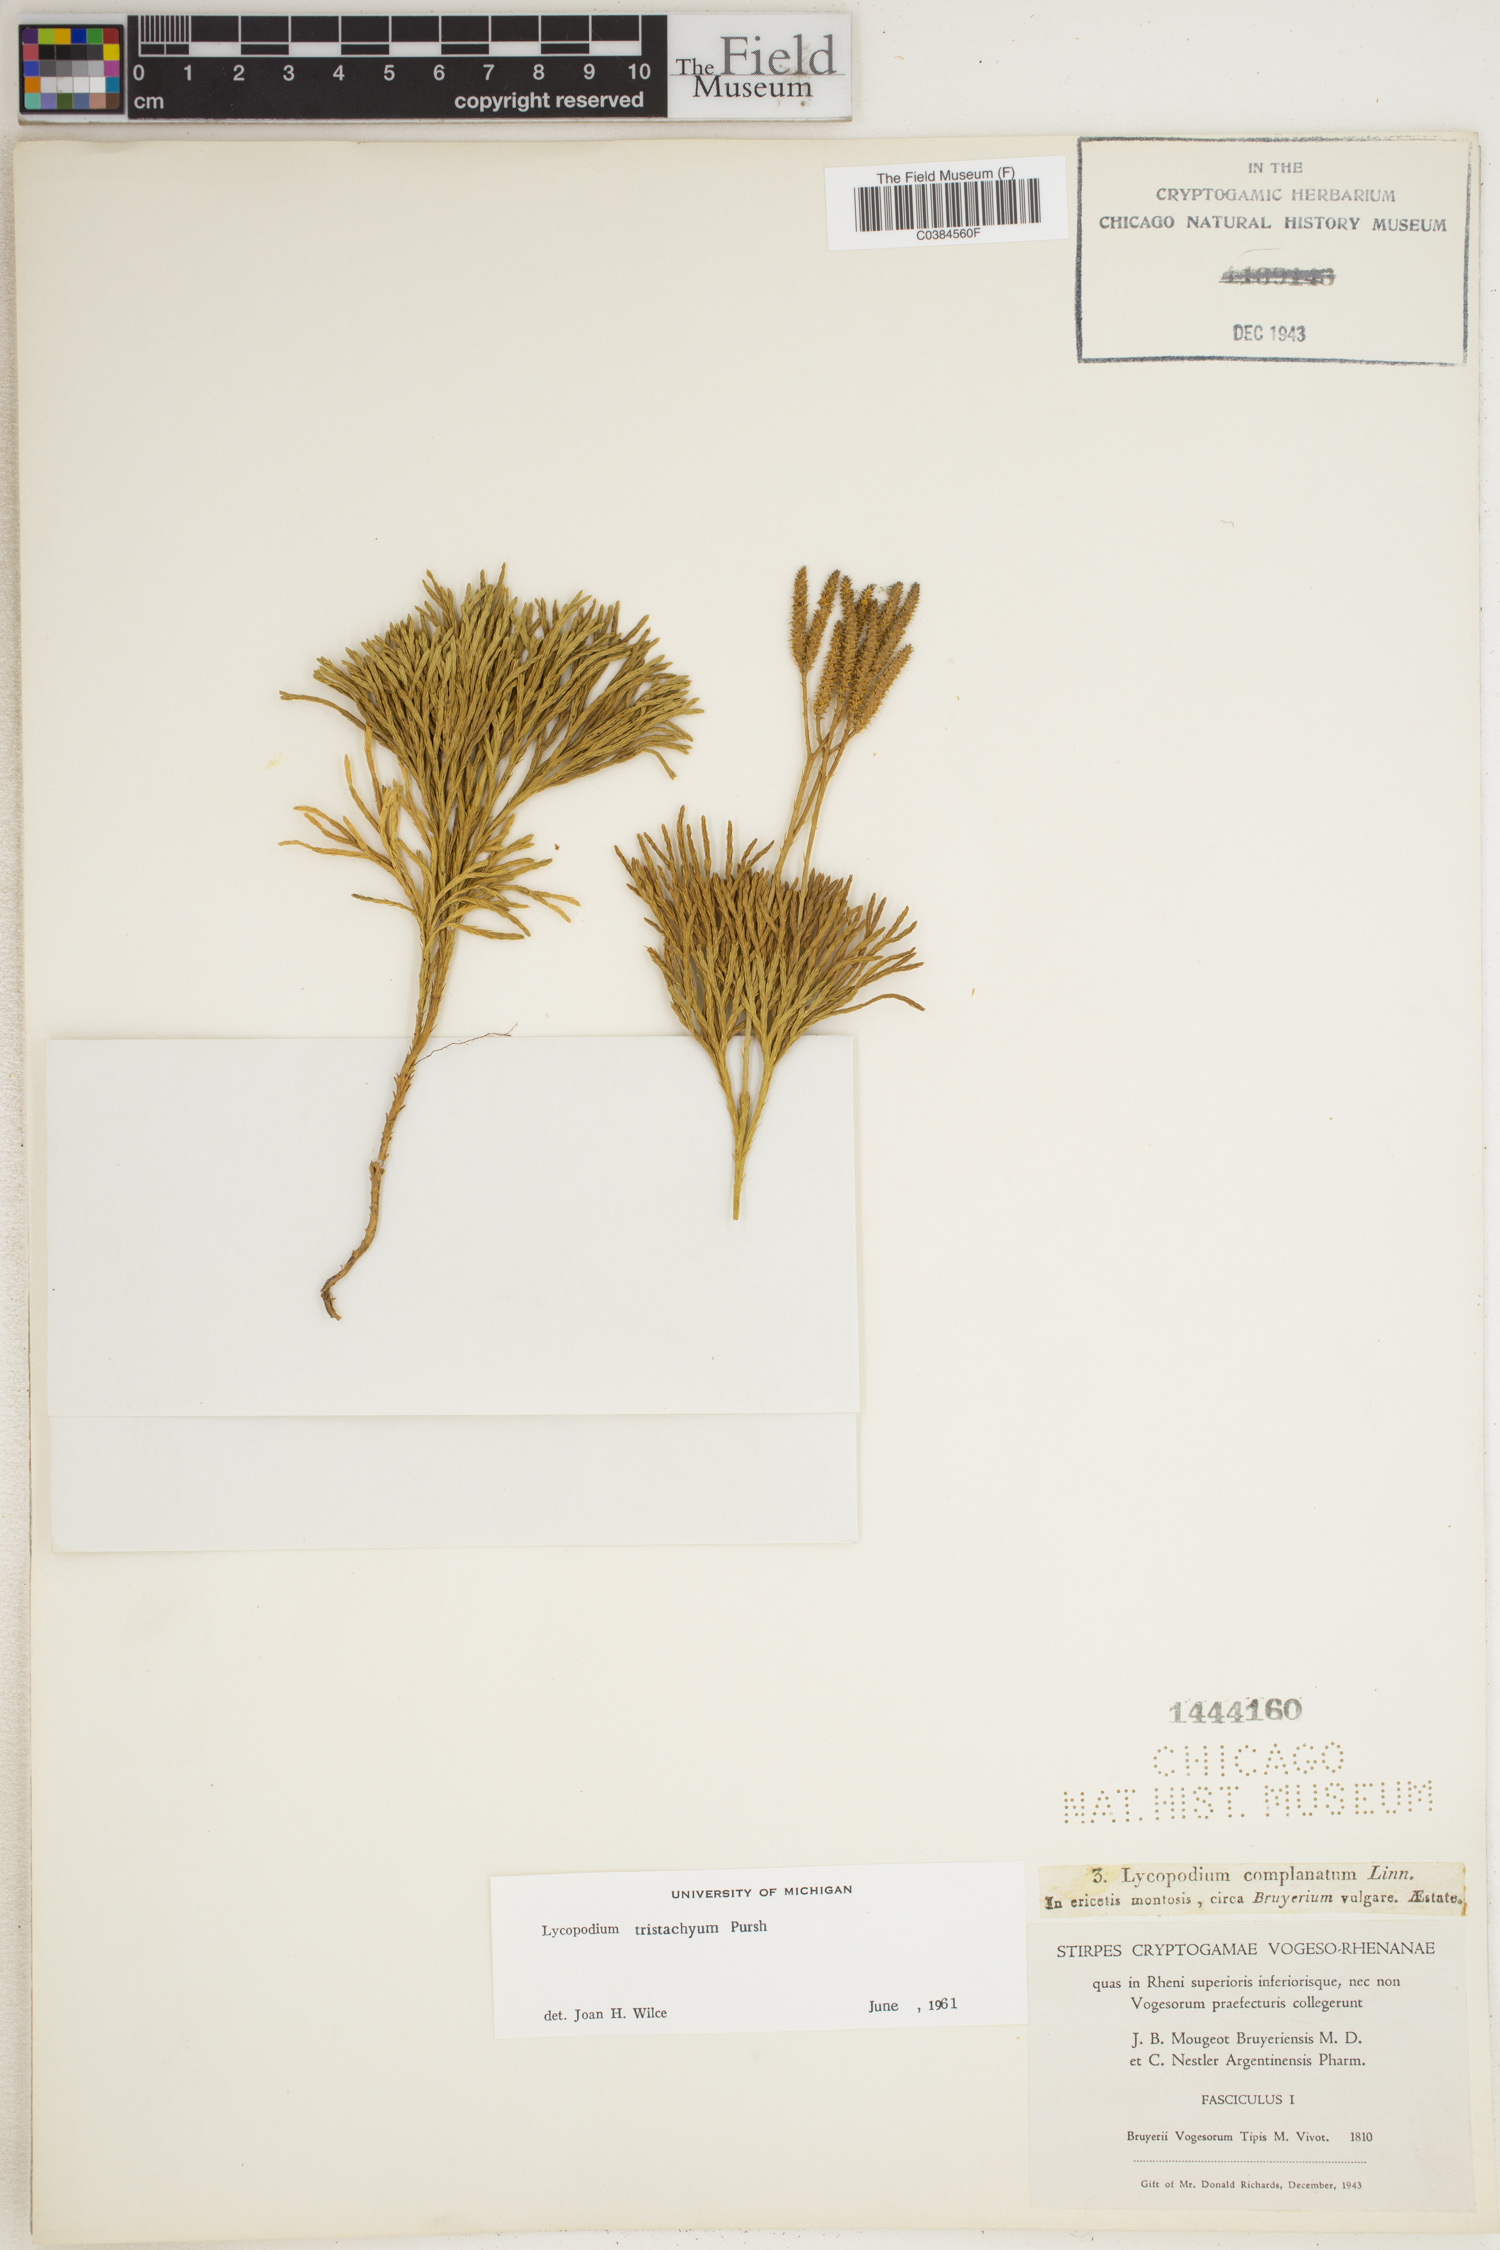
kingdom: Plantae
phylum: Tracheophyta
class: Lycopodiopsida
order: Lycopodiales
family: Lycopodiaceae
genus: Diphasiastrum
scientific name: Diphasiastrum tristachyum
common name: Blue ground-cedar
